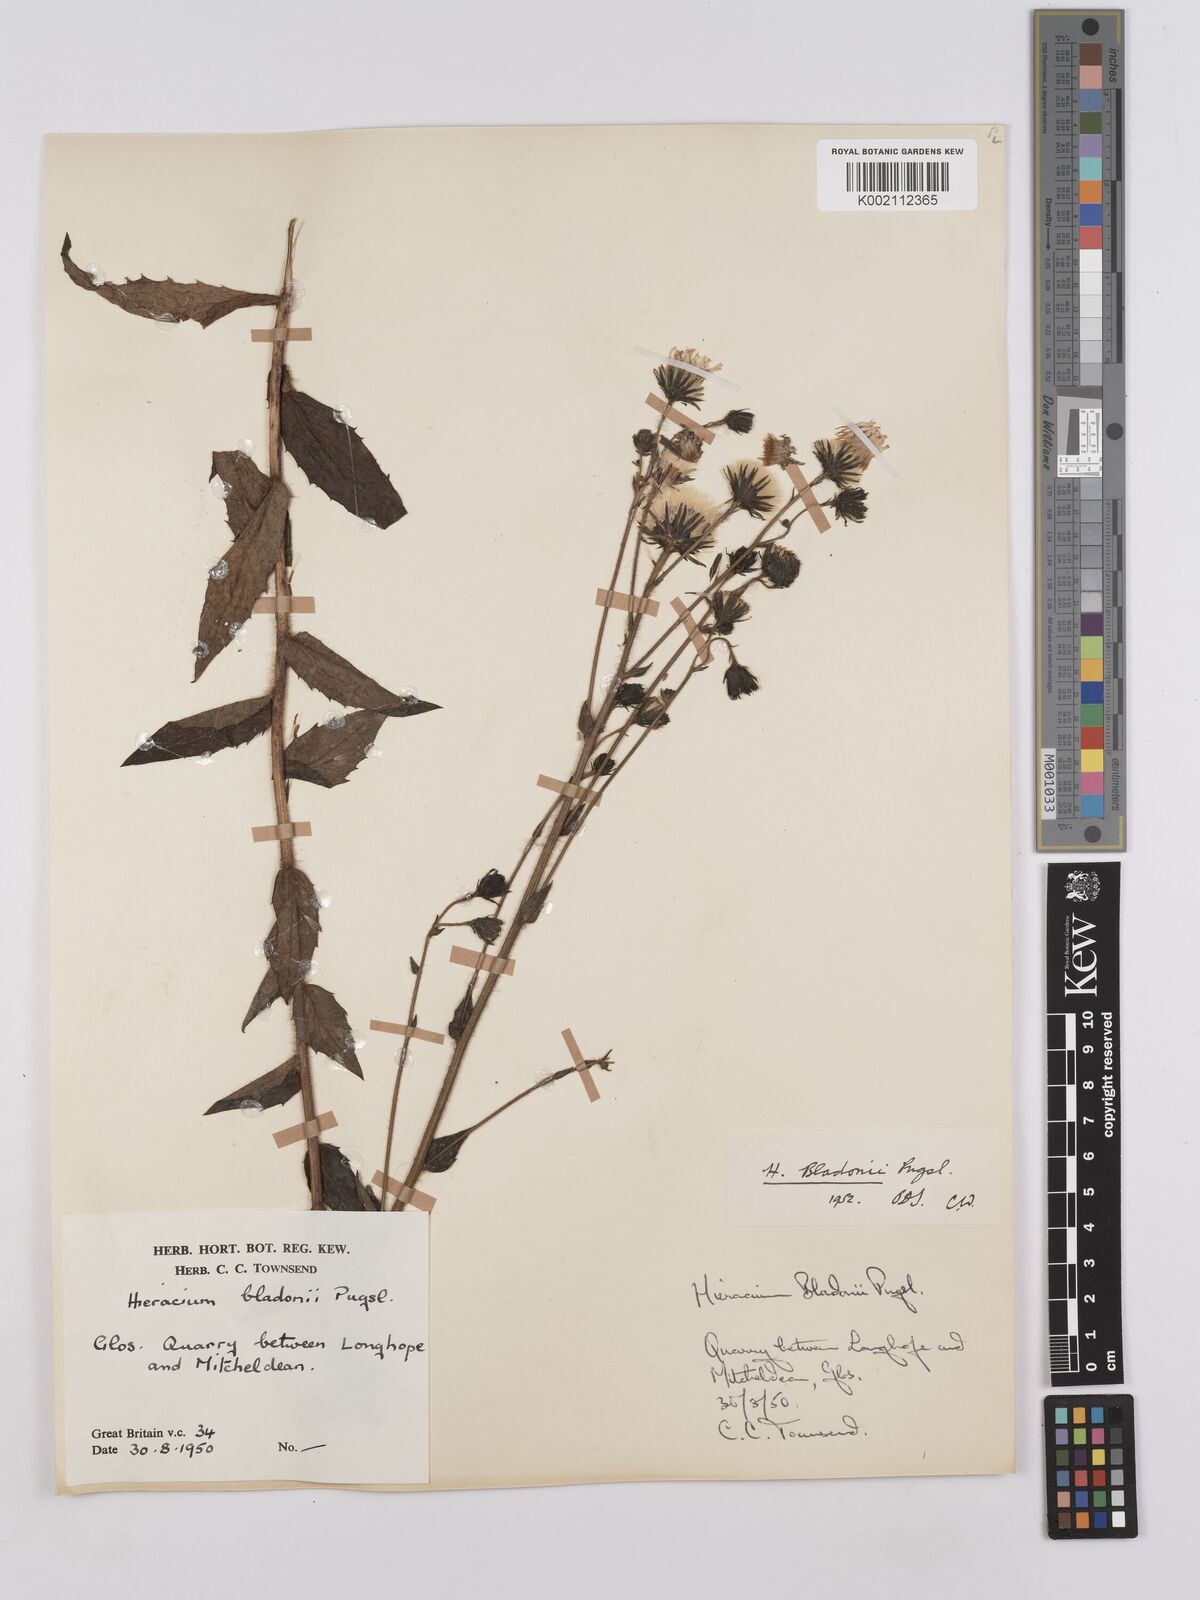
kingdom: Plantae
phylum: Tracheophyta
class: Magnoliopsida
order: Asterales
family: Asteraceae
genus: Hieracium
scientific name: Hieracium sabaudum
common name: New england hawkweed
